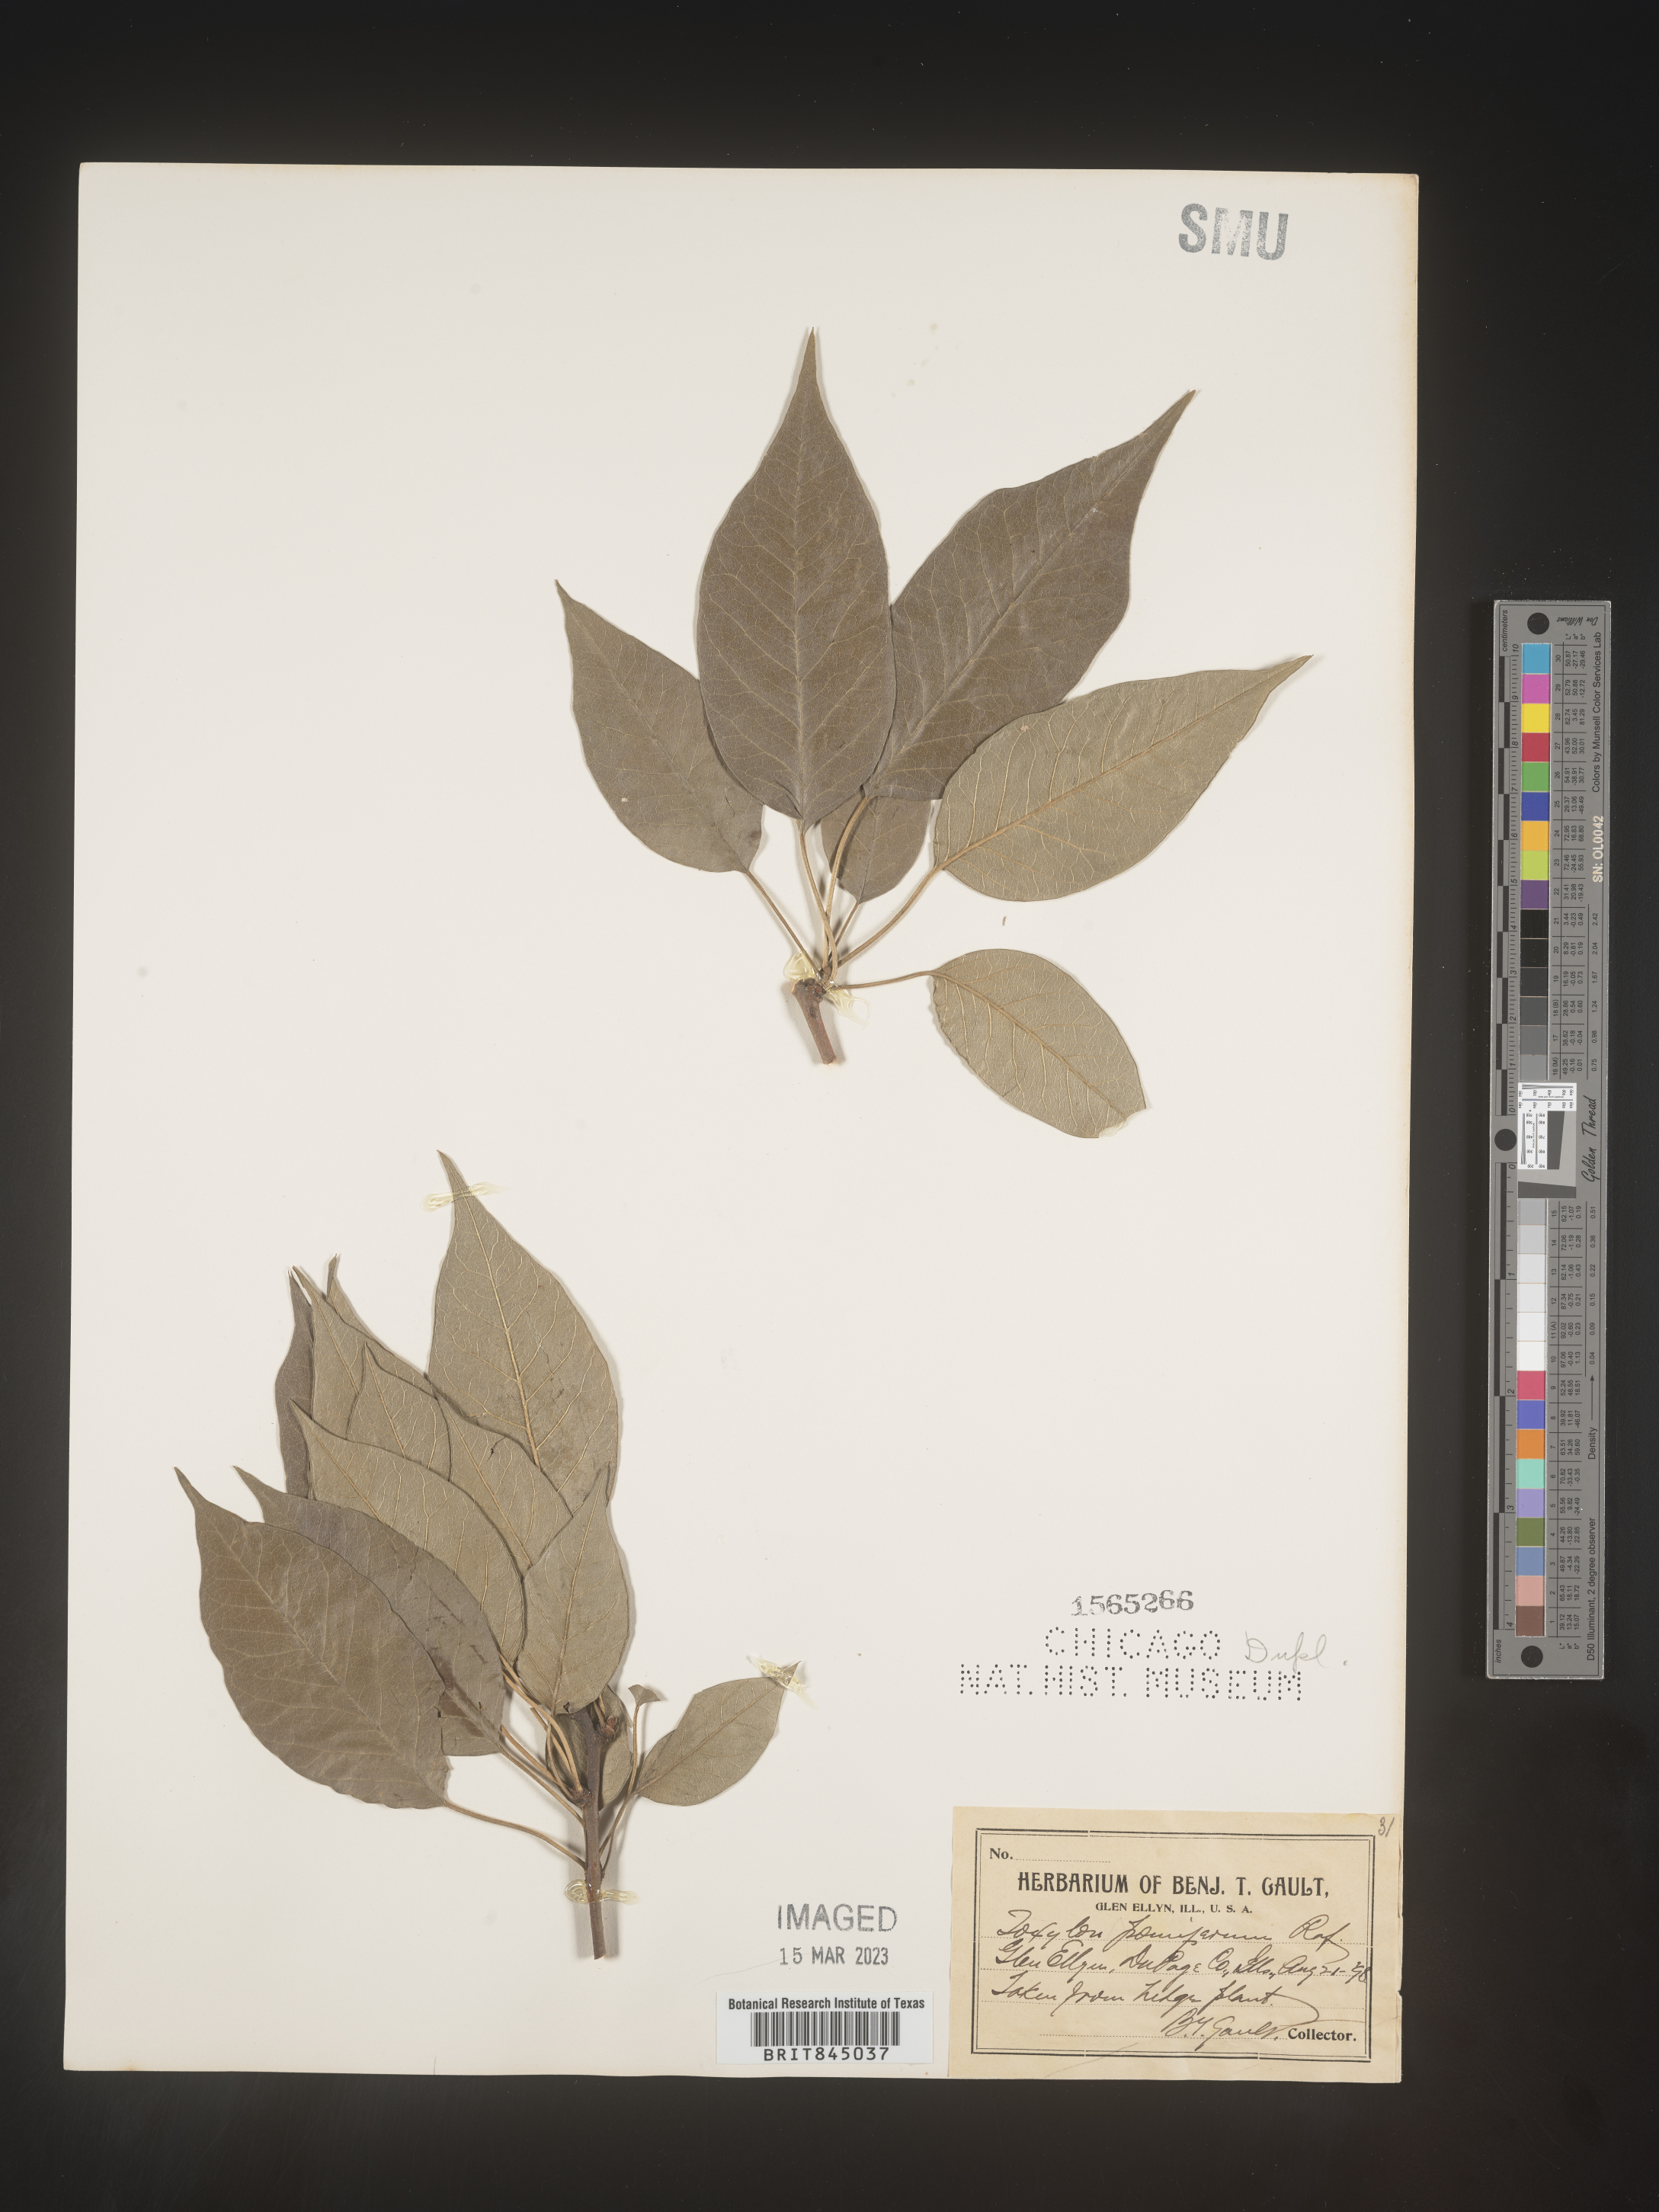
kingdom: Plantae
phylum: Tracheophyta
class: Magnoliopsida
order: Rosales
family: Moraceae
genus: Maclura
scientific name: Maclura pomifera
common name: Osage-orange
